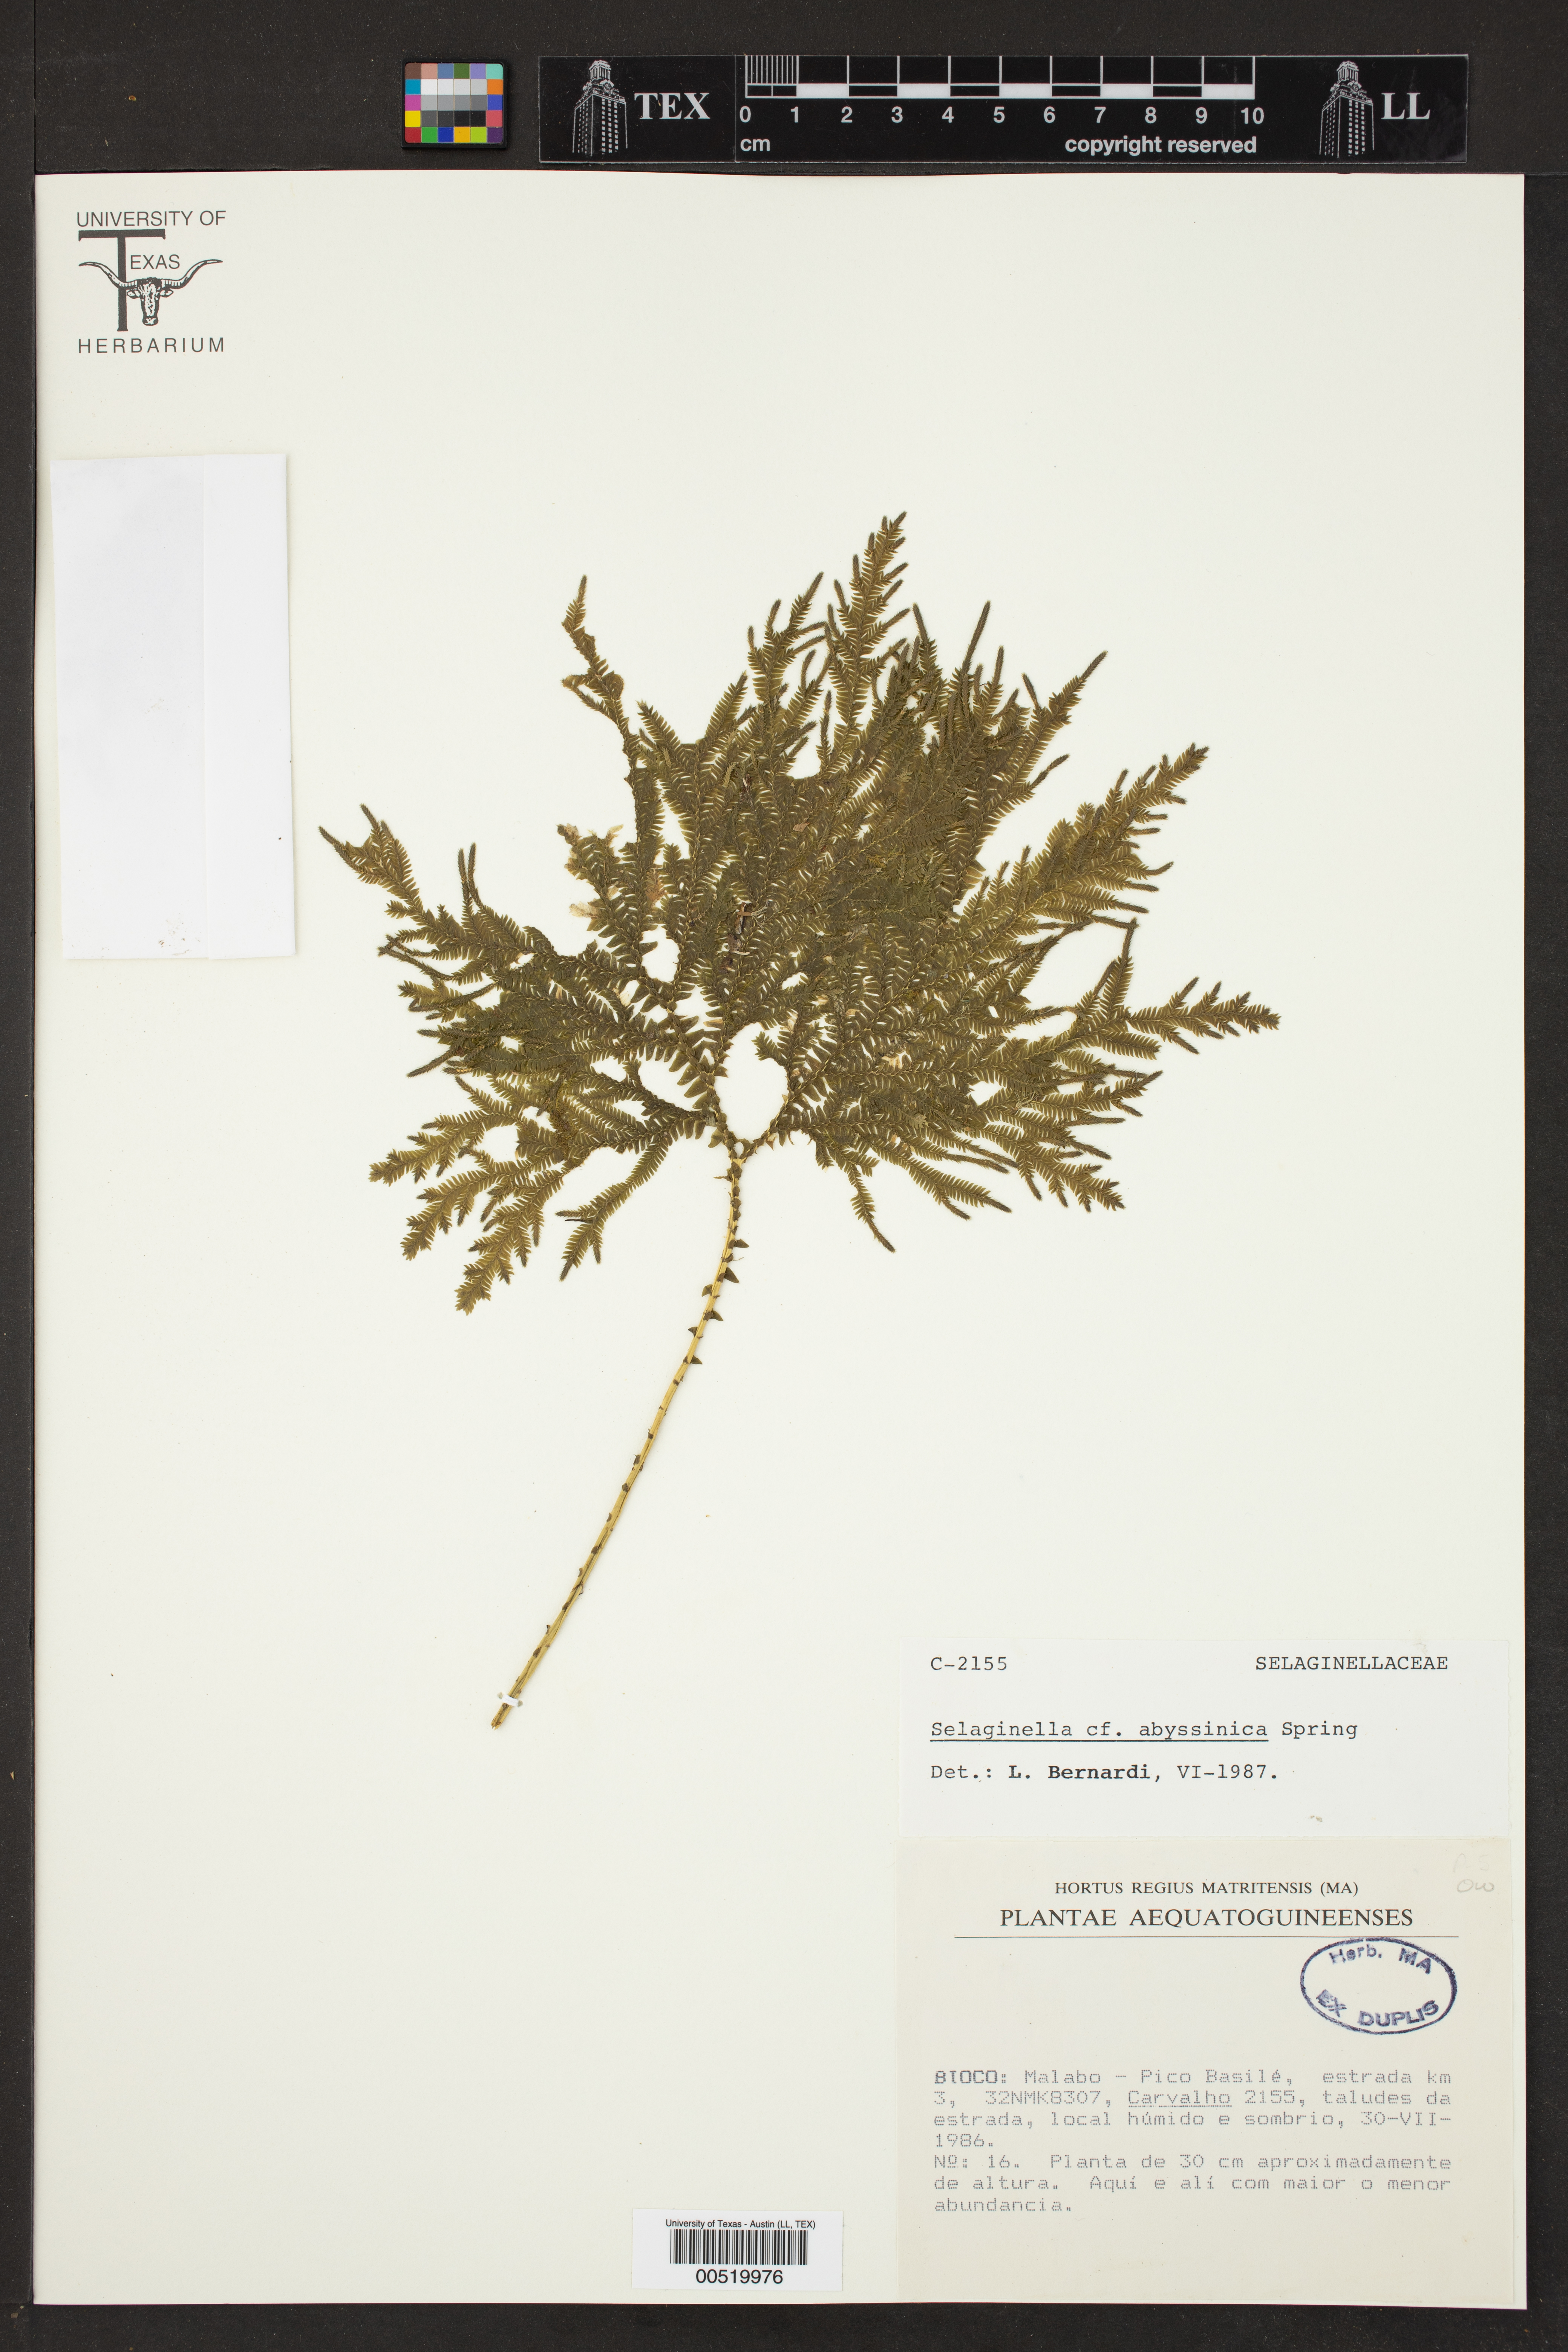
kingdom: Plantae
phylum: Tracheophyta
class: Lycopodiopsida
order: Selaginellales
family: Selaginellaceae
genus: Selaginella
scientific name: Selaginella goudotiana
